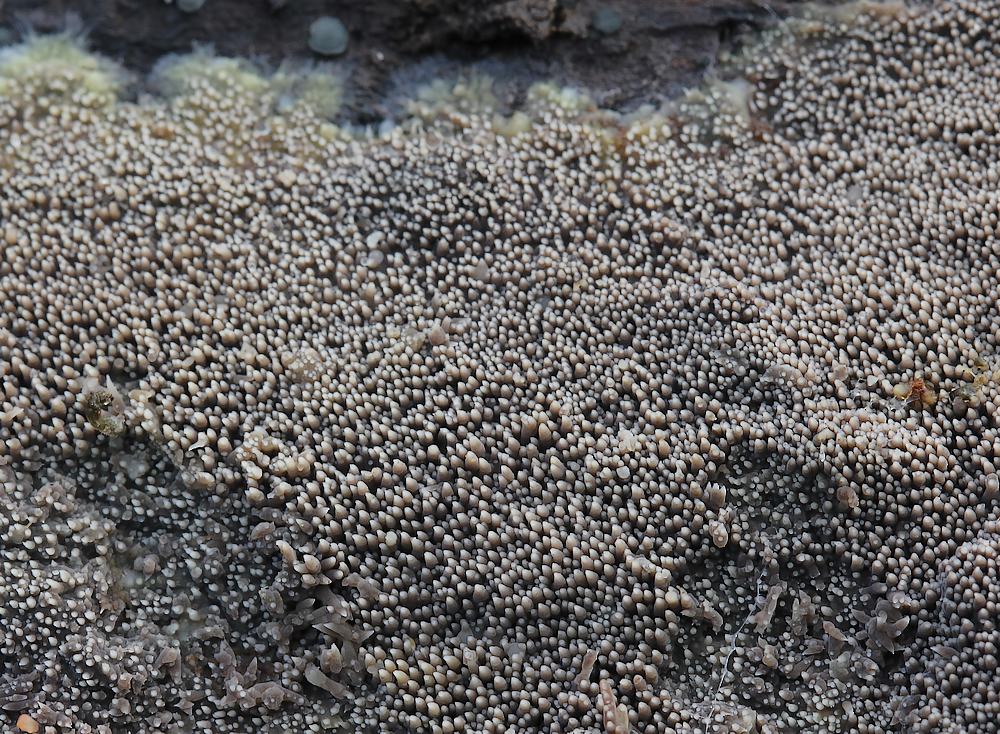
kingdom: Fungi
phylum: Basidiomycota
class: Agaricomycetes
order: Polyporales
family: Meruliaceae
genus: Mycoacia
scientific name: Mycoacia fuscoatra
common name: mørk vokspig
